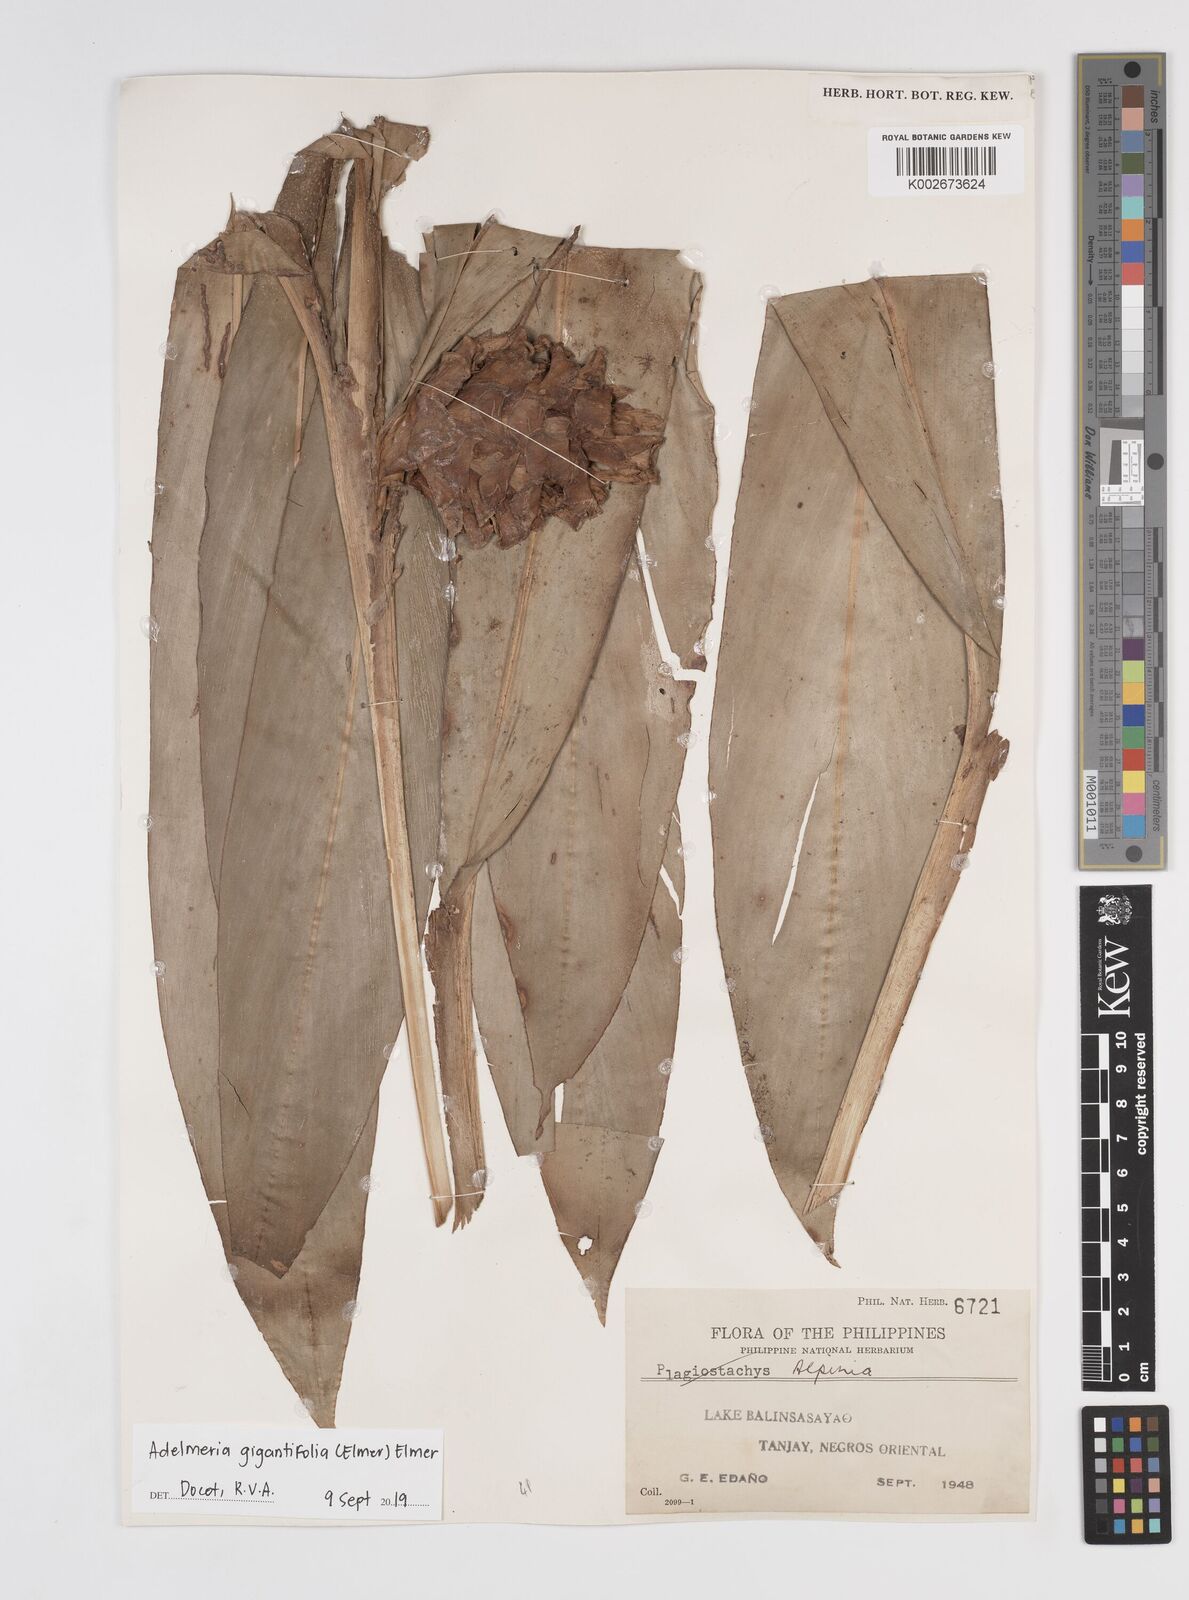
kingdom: Plantae
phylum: Tracheophyta
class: Liliopsida
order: Zingiberales
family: Zingiberaceae
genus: Adelmeria
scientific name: Adelmeria gigantifolia
